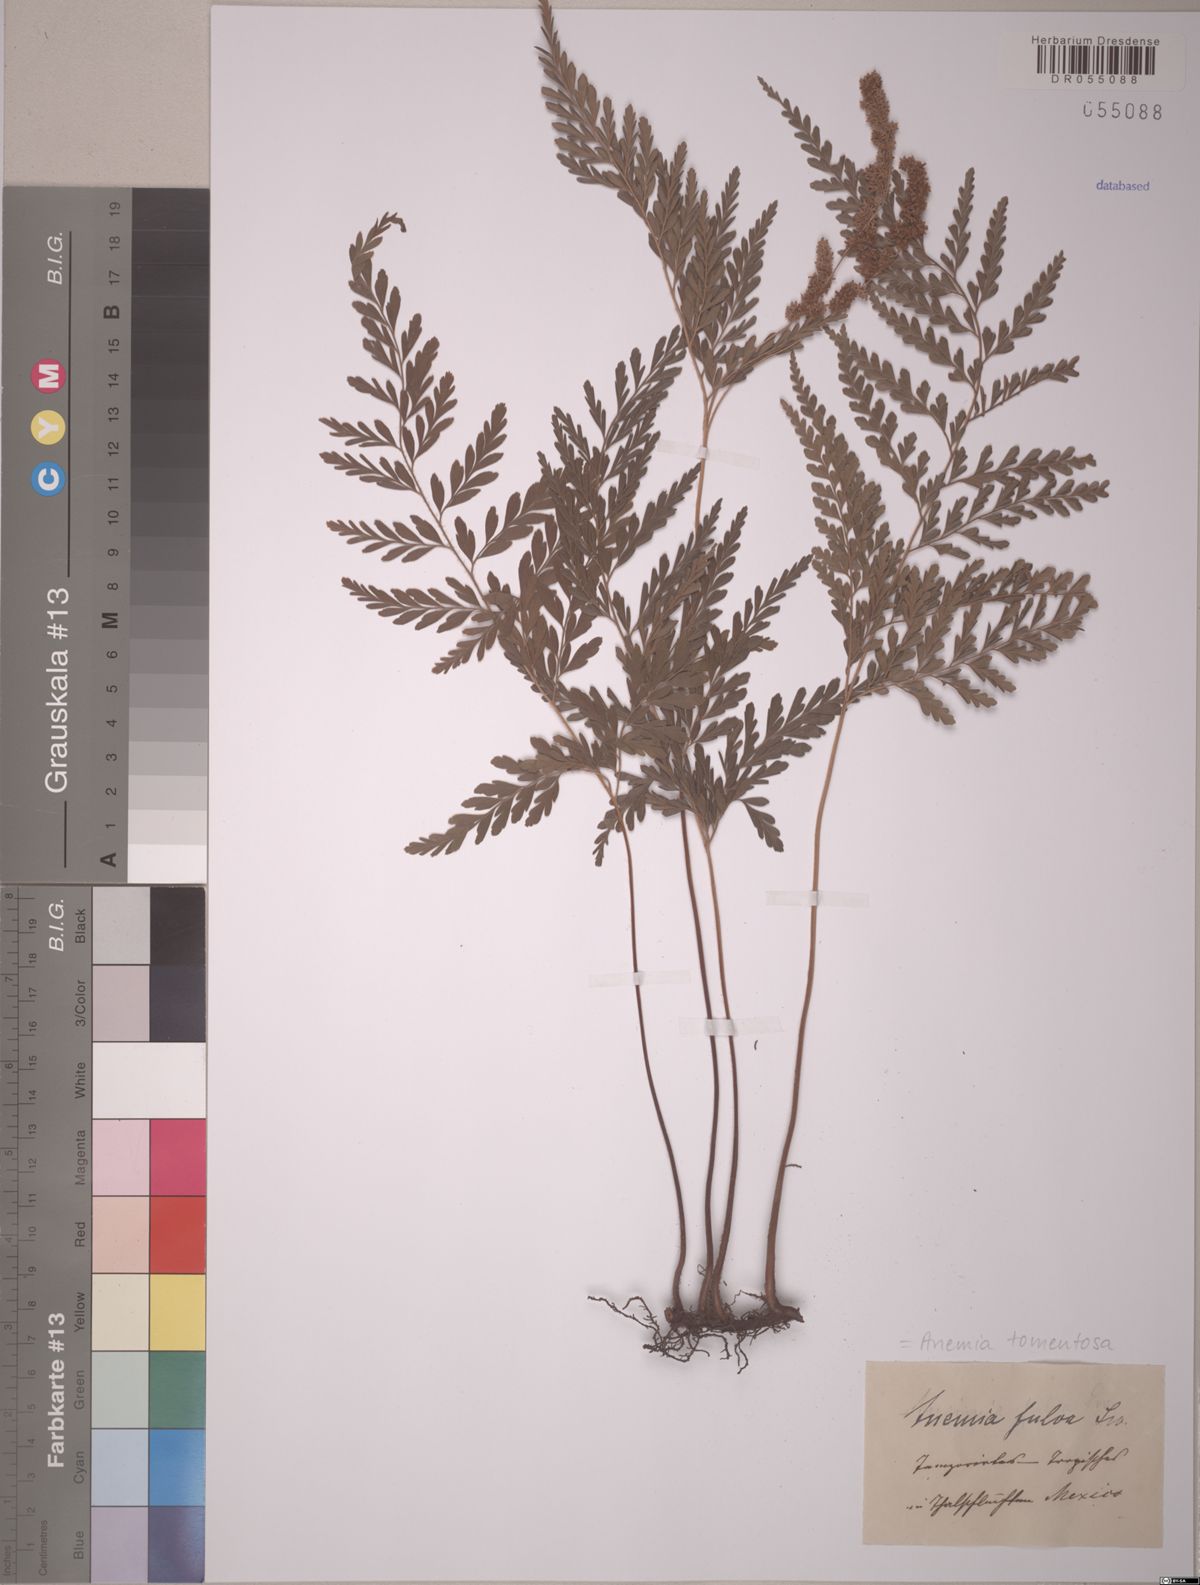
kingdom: Plantae
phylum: Tracheophyta
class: Polypodiopsida
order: Schizaeales
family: Anemiaceae
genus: Anemia
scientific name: Anemia tomentosa
